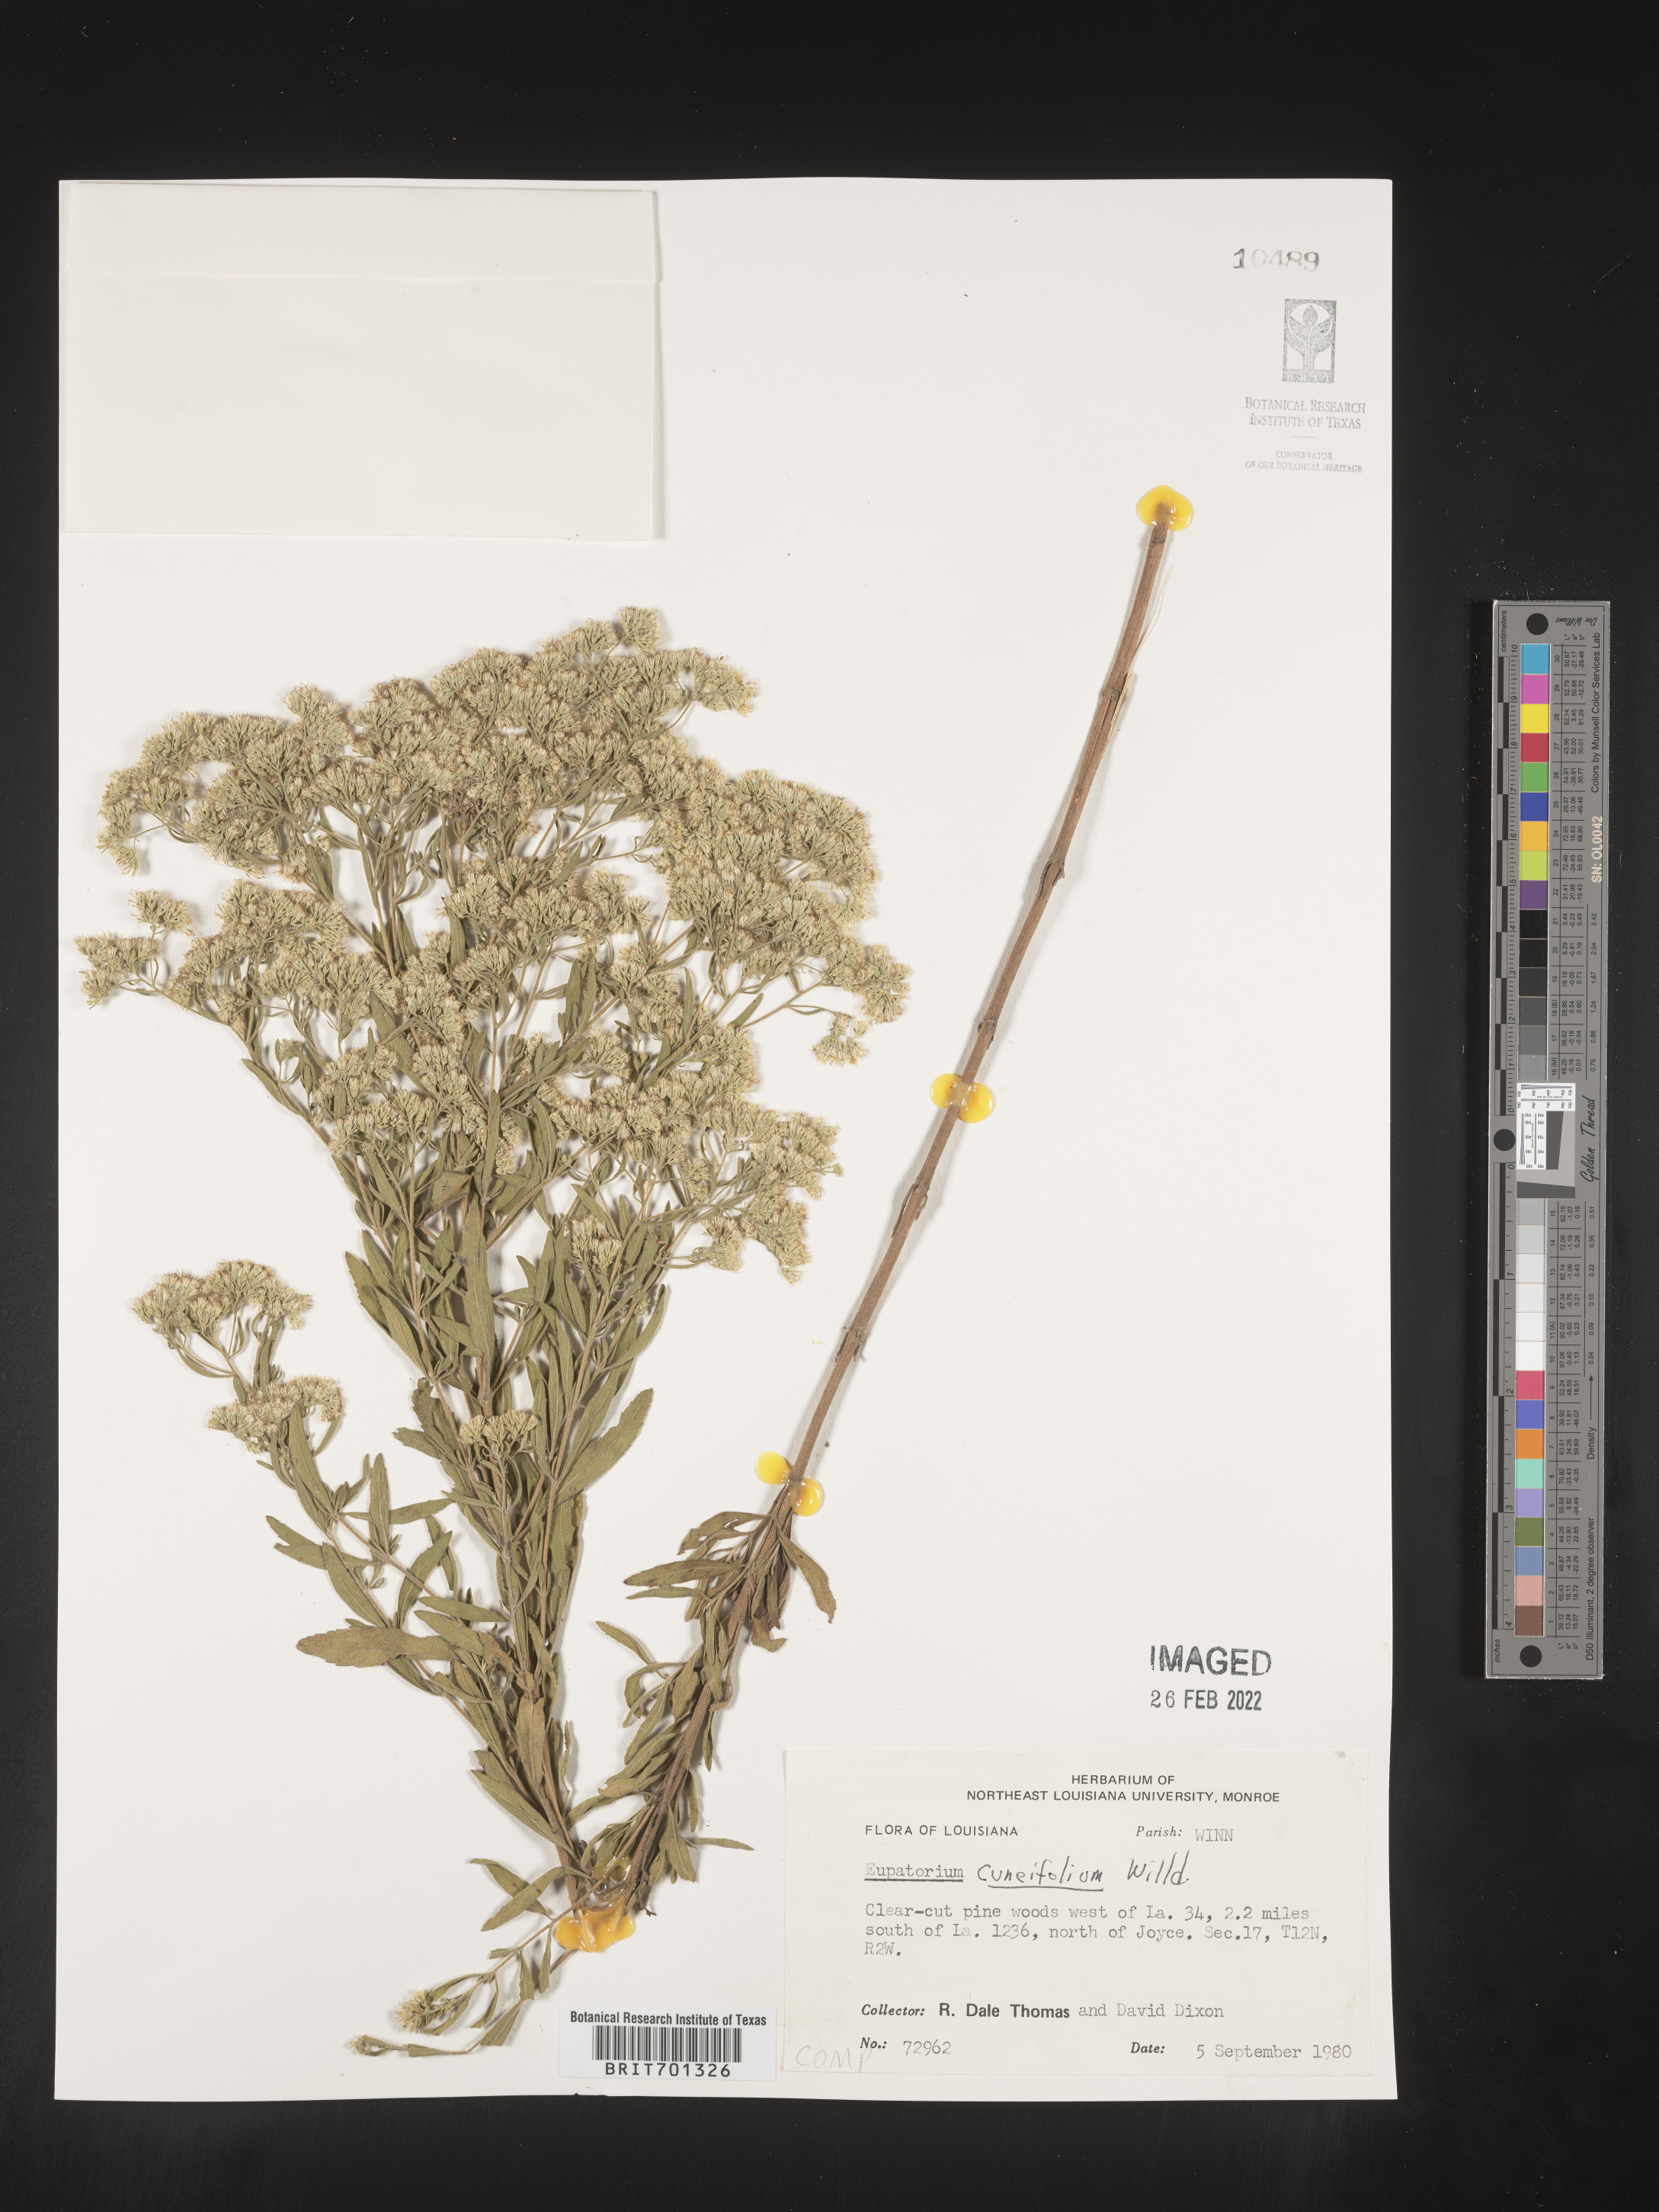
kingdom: Plantae
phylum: Tracheophyta
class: Magnoliopsida
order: Asterales
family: Asteraceae
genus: Eupatorium
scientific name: Eupatorium linearifolium
